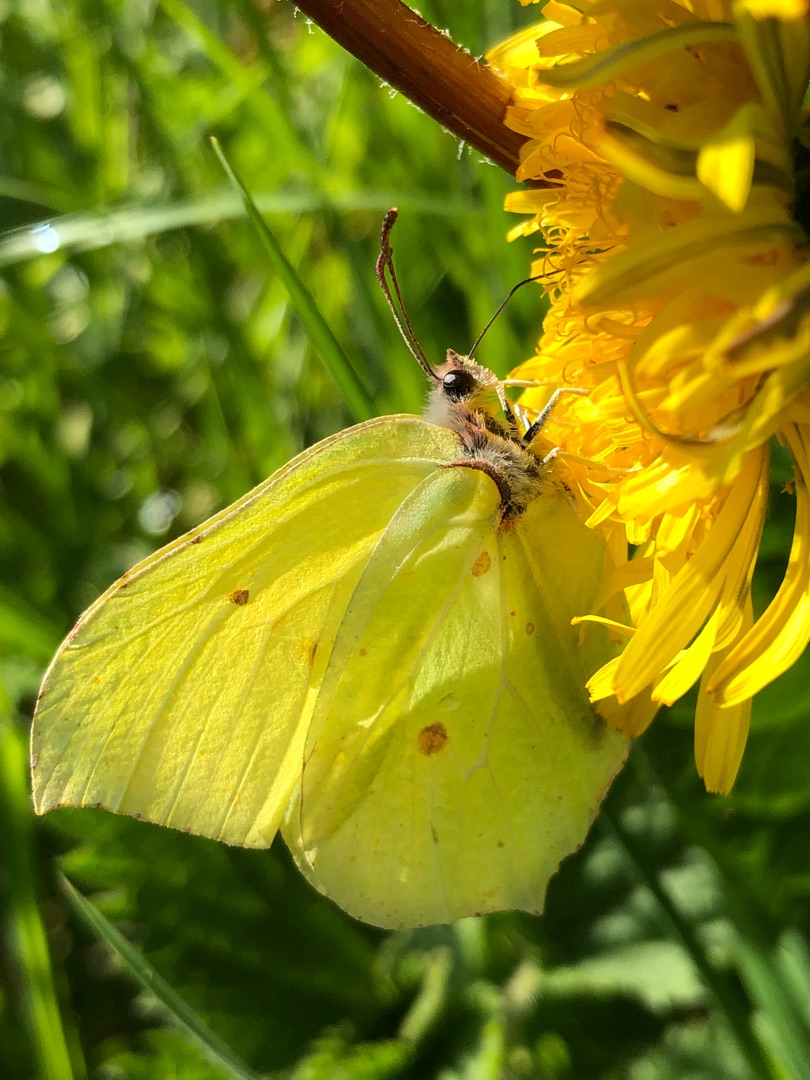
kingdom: Animalia
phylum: Arthropoda
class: Insecta
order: Lepidoptera
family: Pieridae
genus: Gonepteryx
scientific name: Gonepteryx rhamni
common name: Citronsommerfugl
